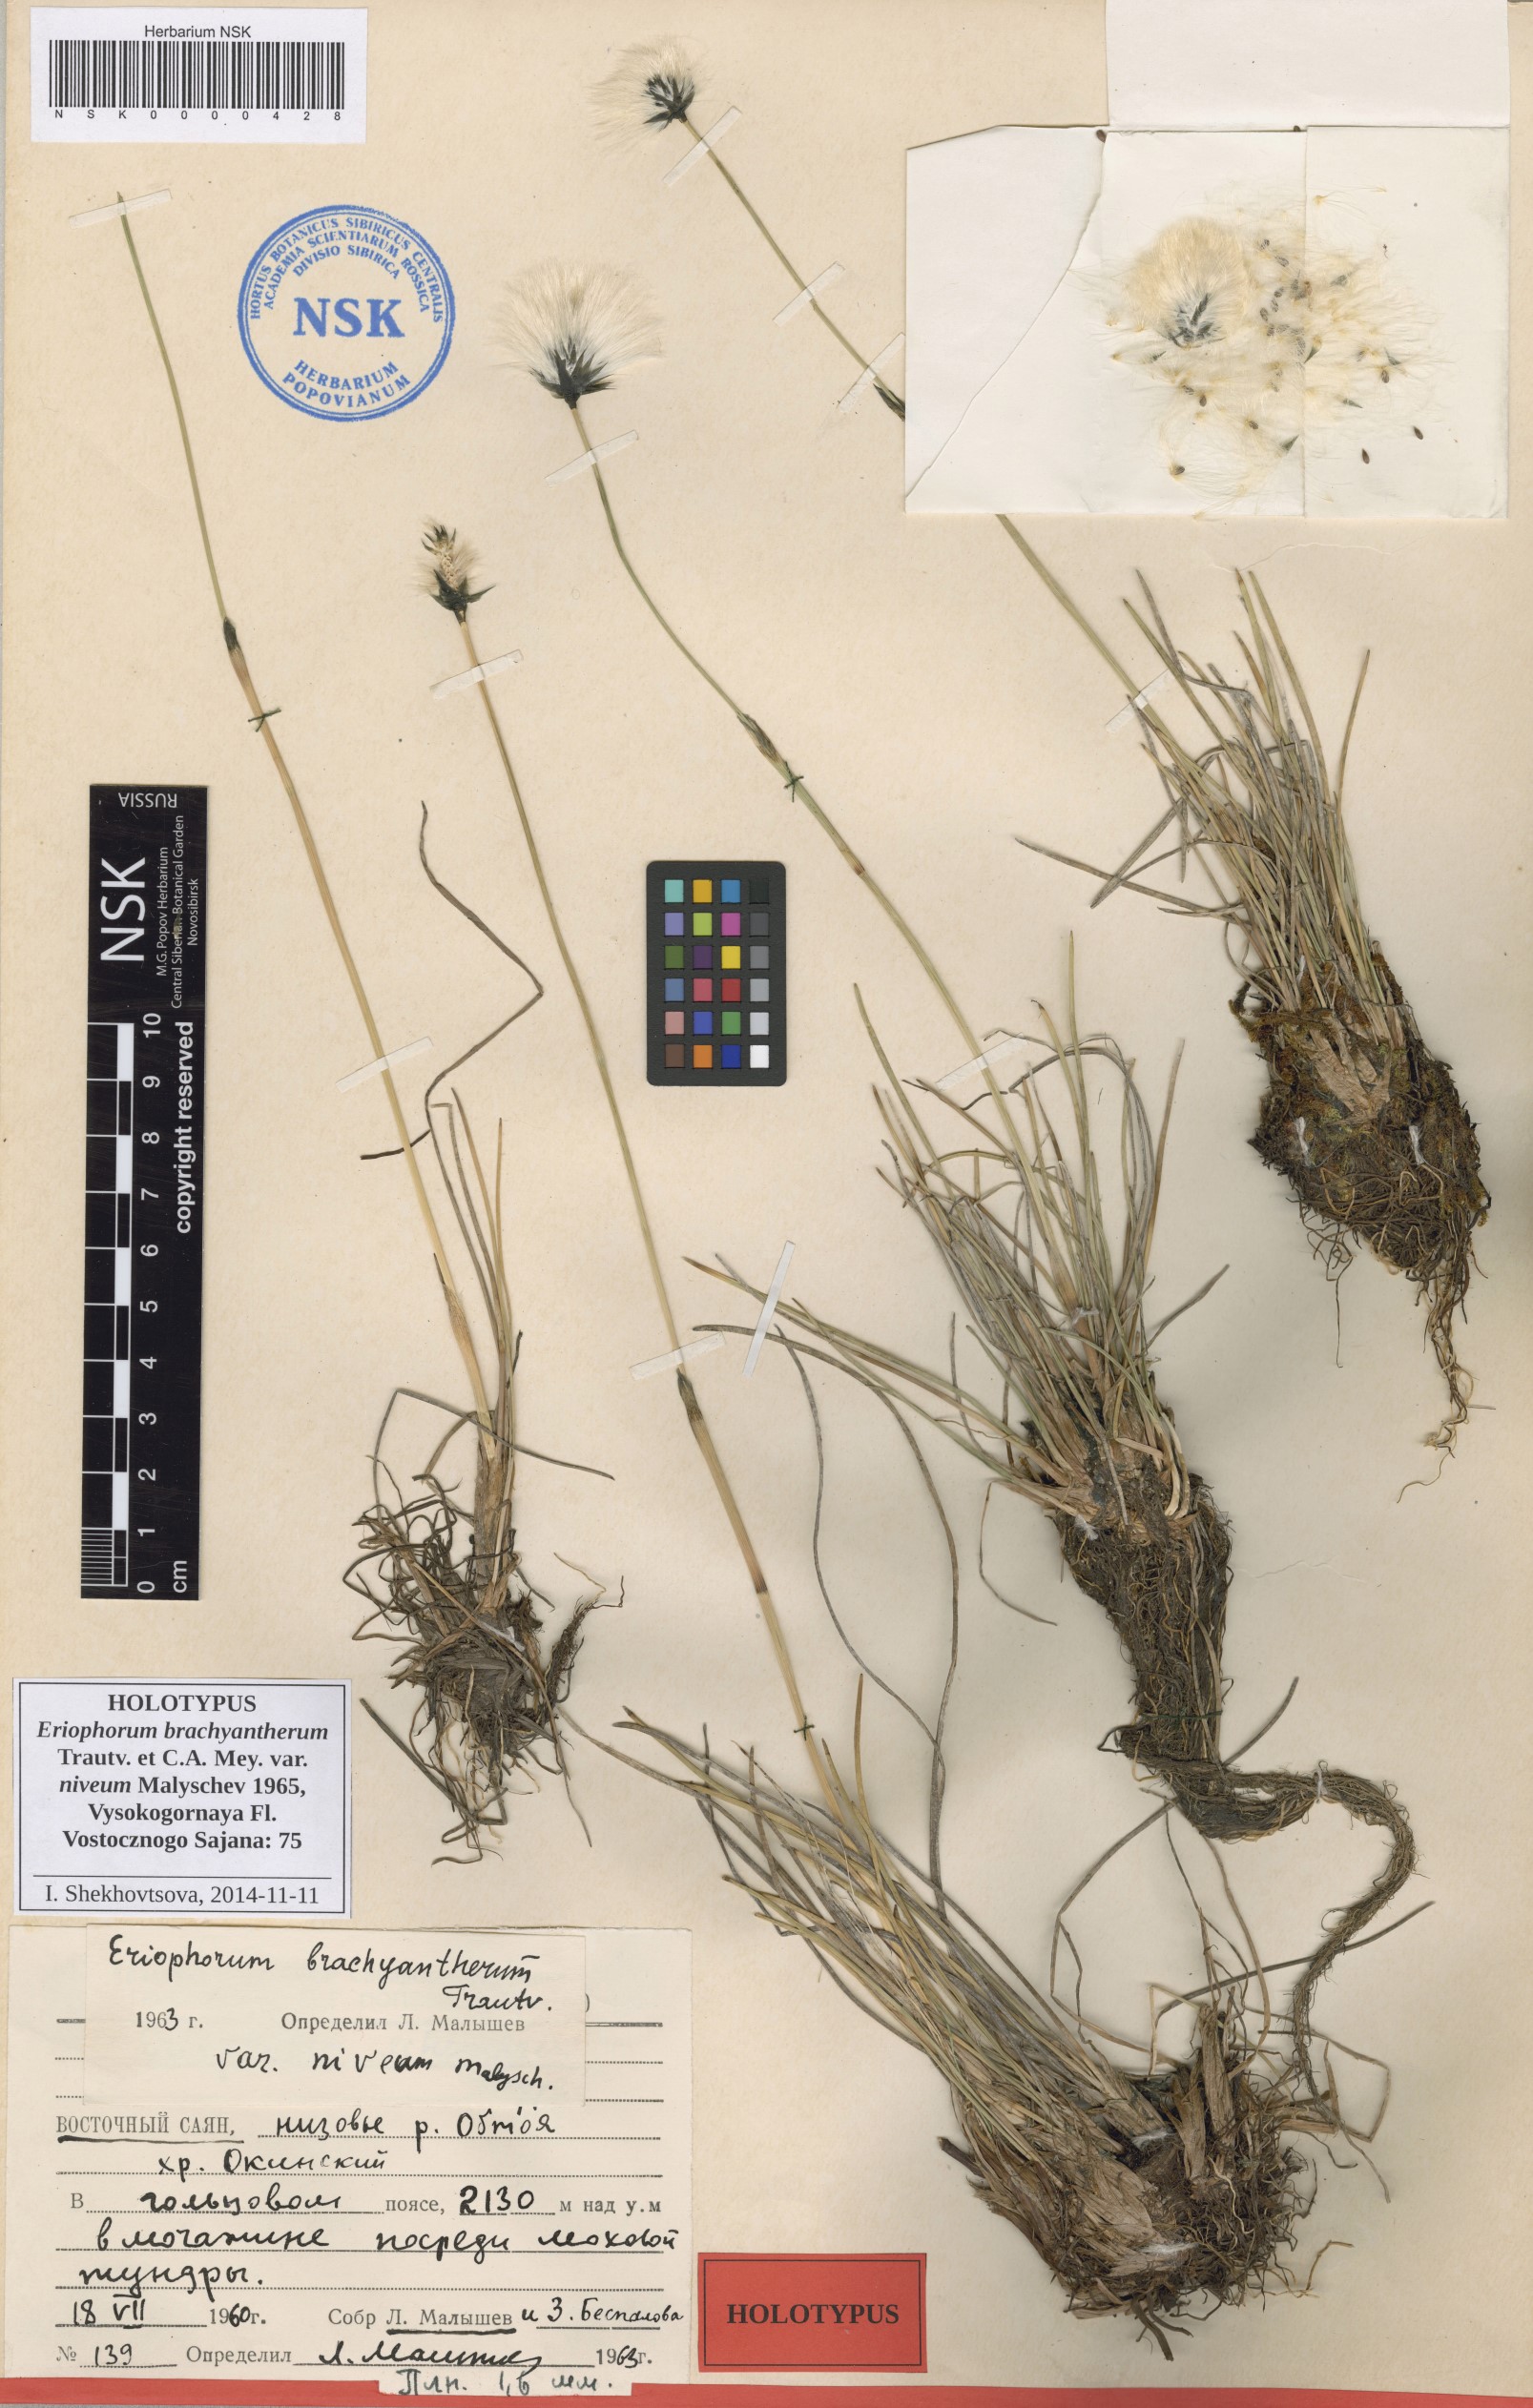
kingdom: Plantae
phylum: Tracheophyta
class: Liliopsida
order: Poales
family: Cyperaceae
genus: Eriophorum
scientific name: Eriophorum brachyantherum
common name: Closed-sheathed cottongrass
